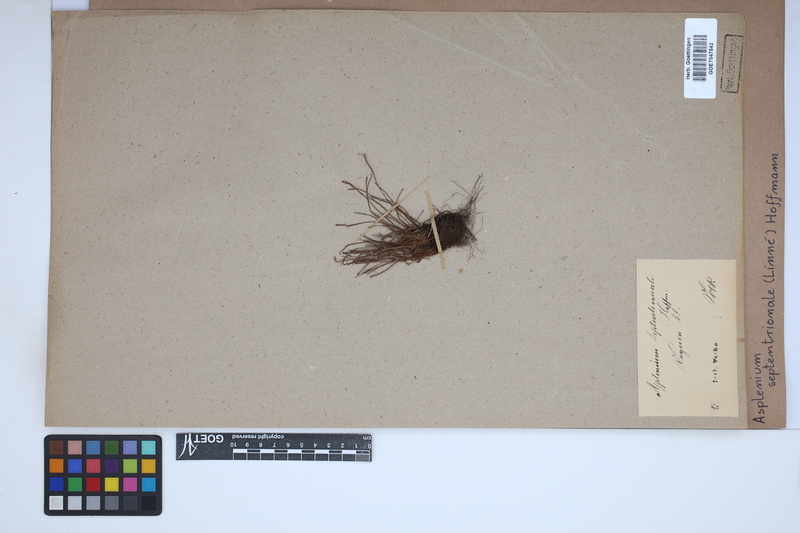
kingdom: Plantae
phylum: Tracheophyta
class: Polypodiopsida
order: Polypodiales
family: Aspleniaceae
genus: Asplenium
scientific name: Asplenium septentrionale
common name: Forked spleenwort
